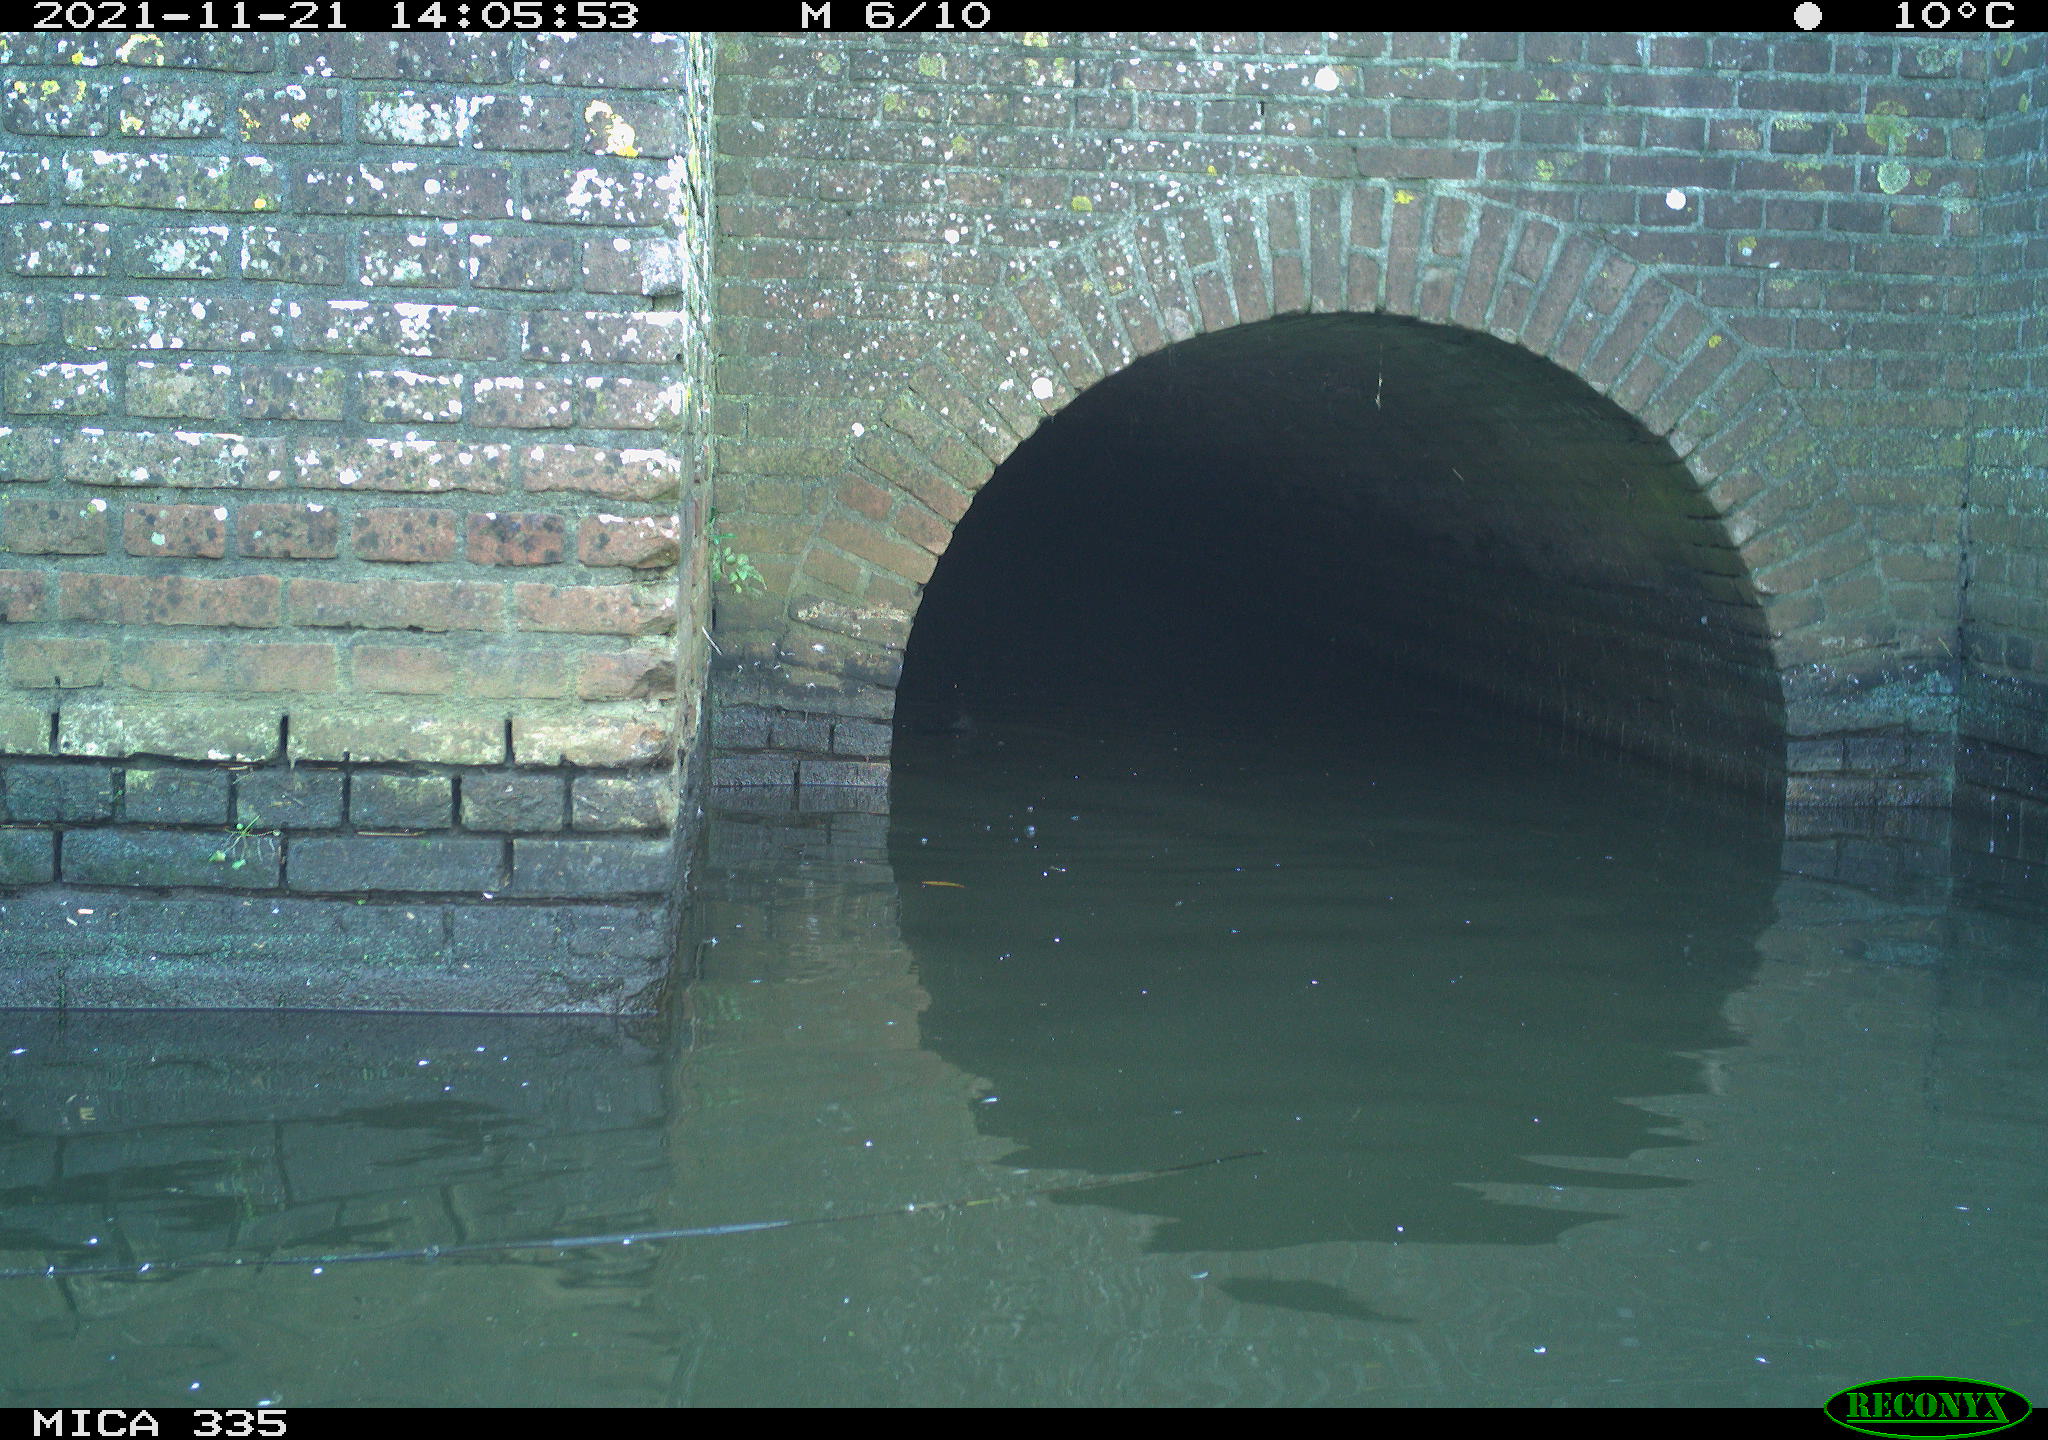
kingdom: Animalia
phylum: Chordata
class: Aves
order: Gruiformes
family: Rallidae
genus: Fulica
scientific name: Fulica atra
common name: Eurasian coot
